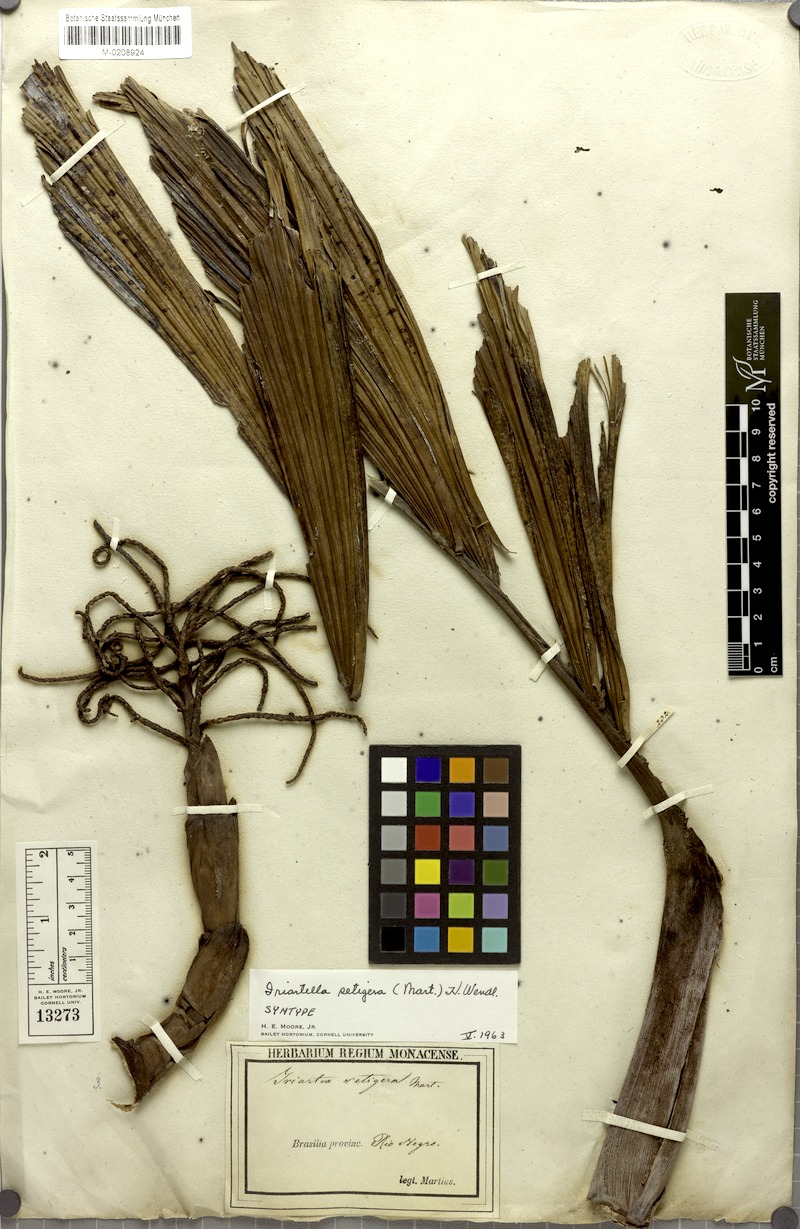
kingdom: Plantae
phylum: Tracheophyta
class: Liliopsida
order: Arecales
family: Arecaceae
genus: Iriartella
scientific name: Iriartella setigera
